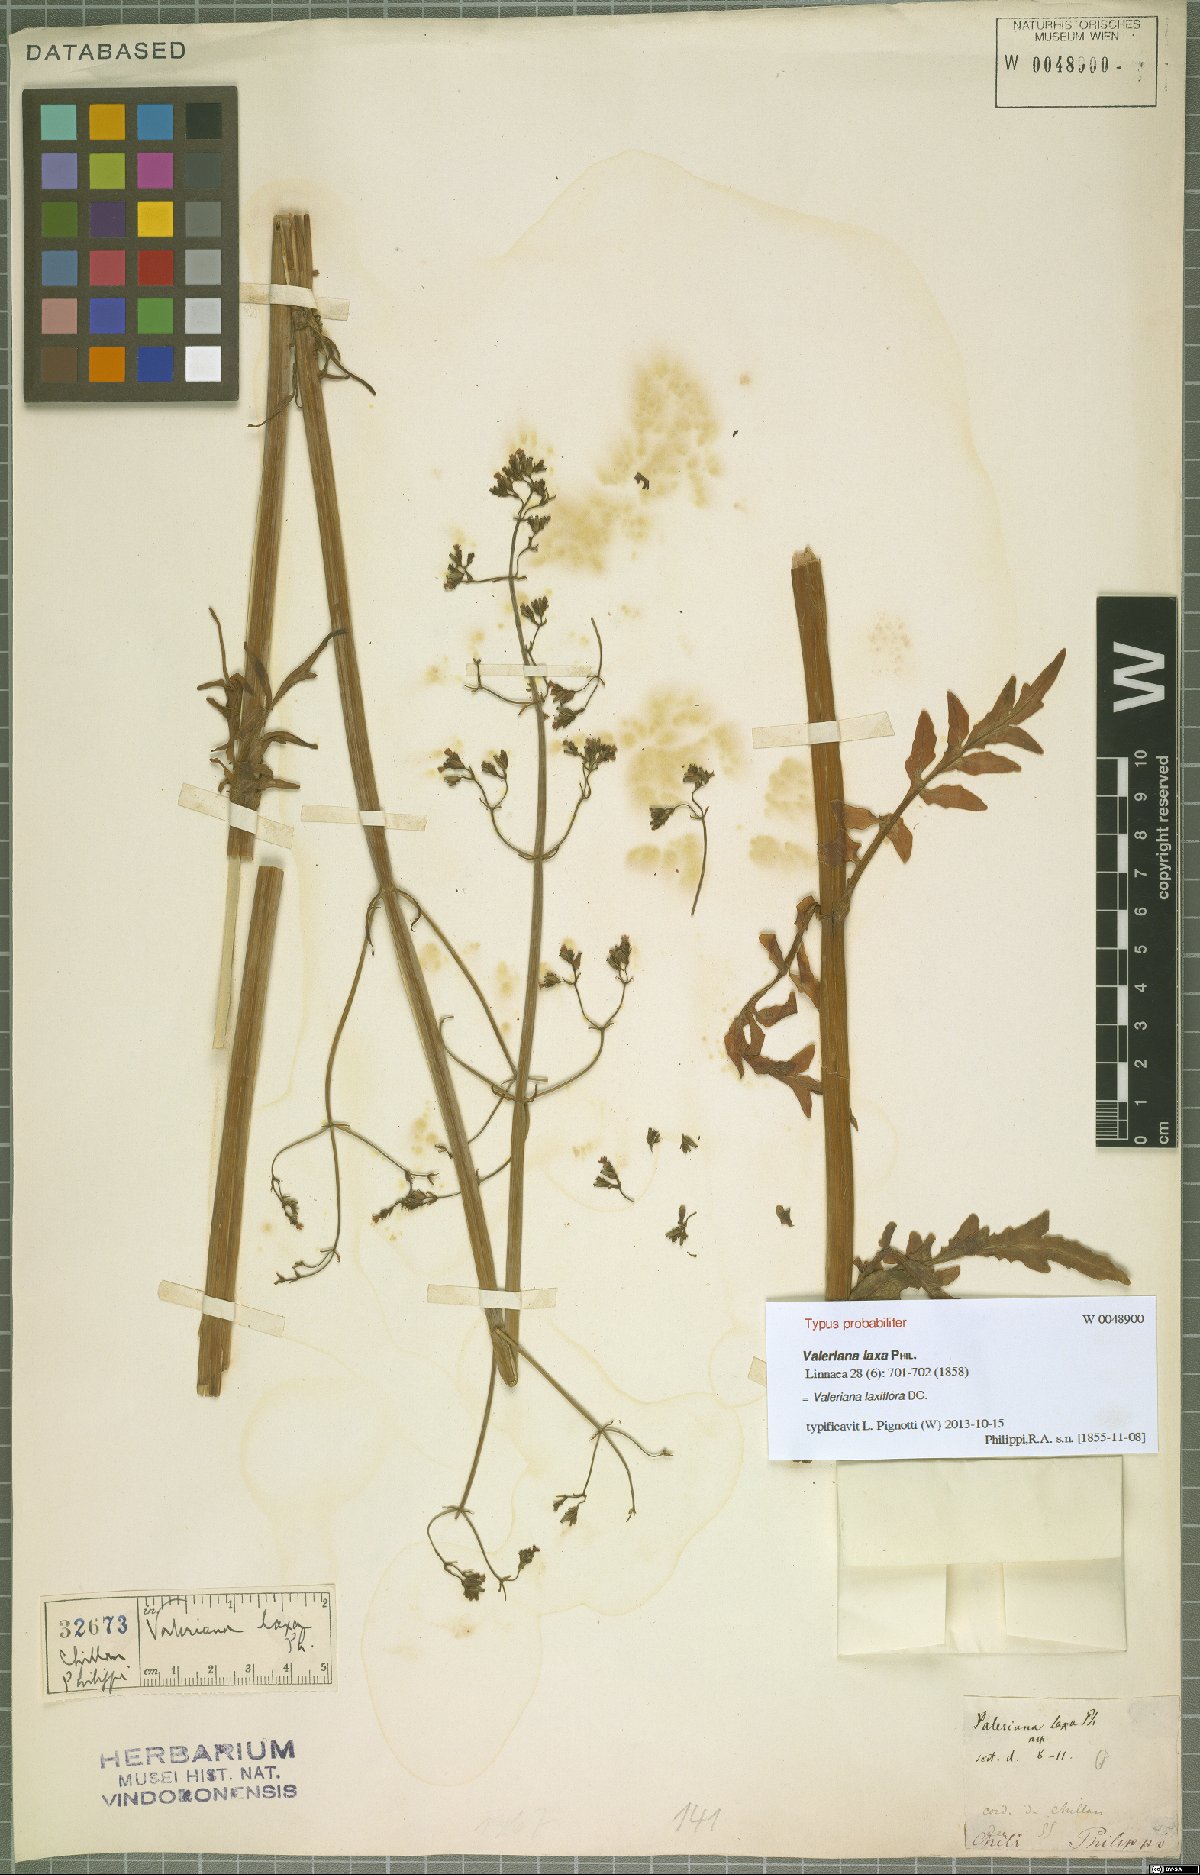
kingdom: Plantae
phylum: Tracheophyta
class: Magnoliopsida
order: Dipsacales
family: Caprifoliaceae
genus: Valeriana
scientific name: Valeriana laxiflora
